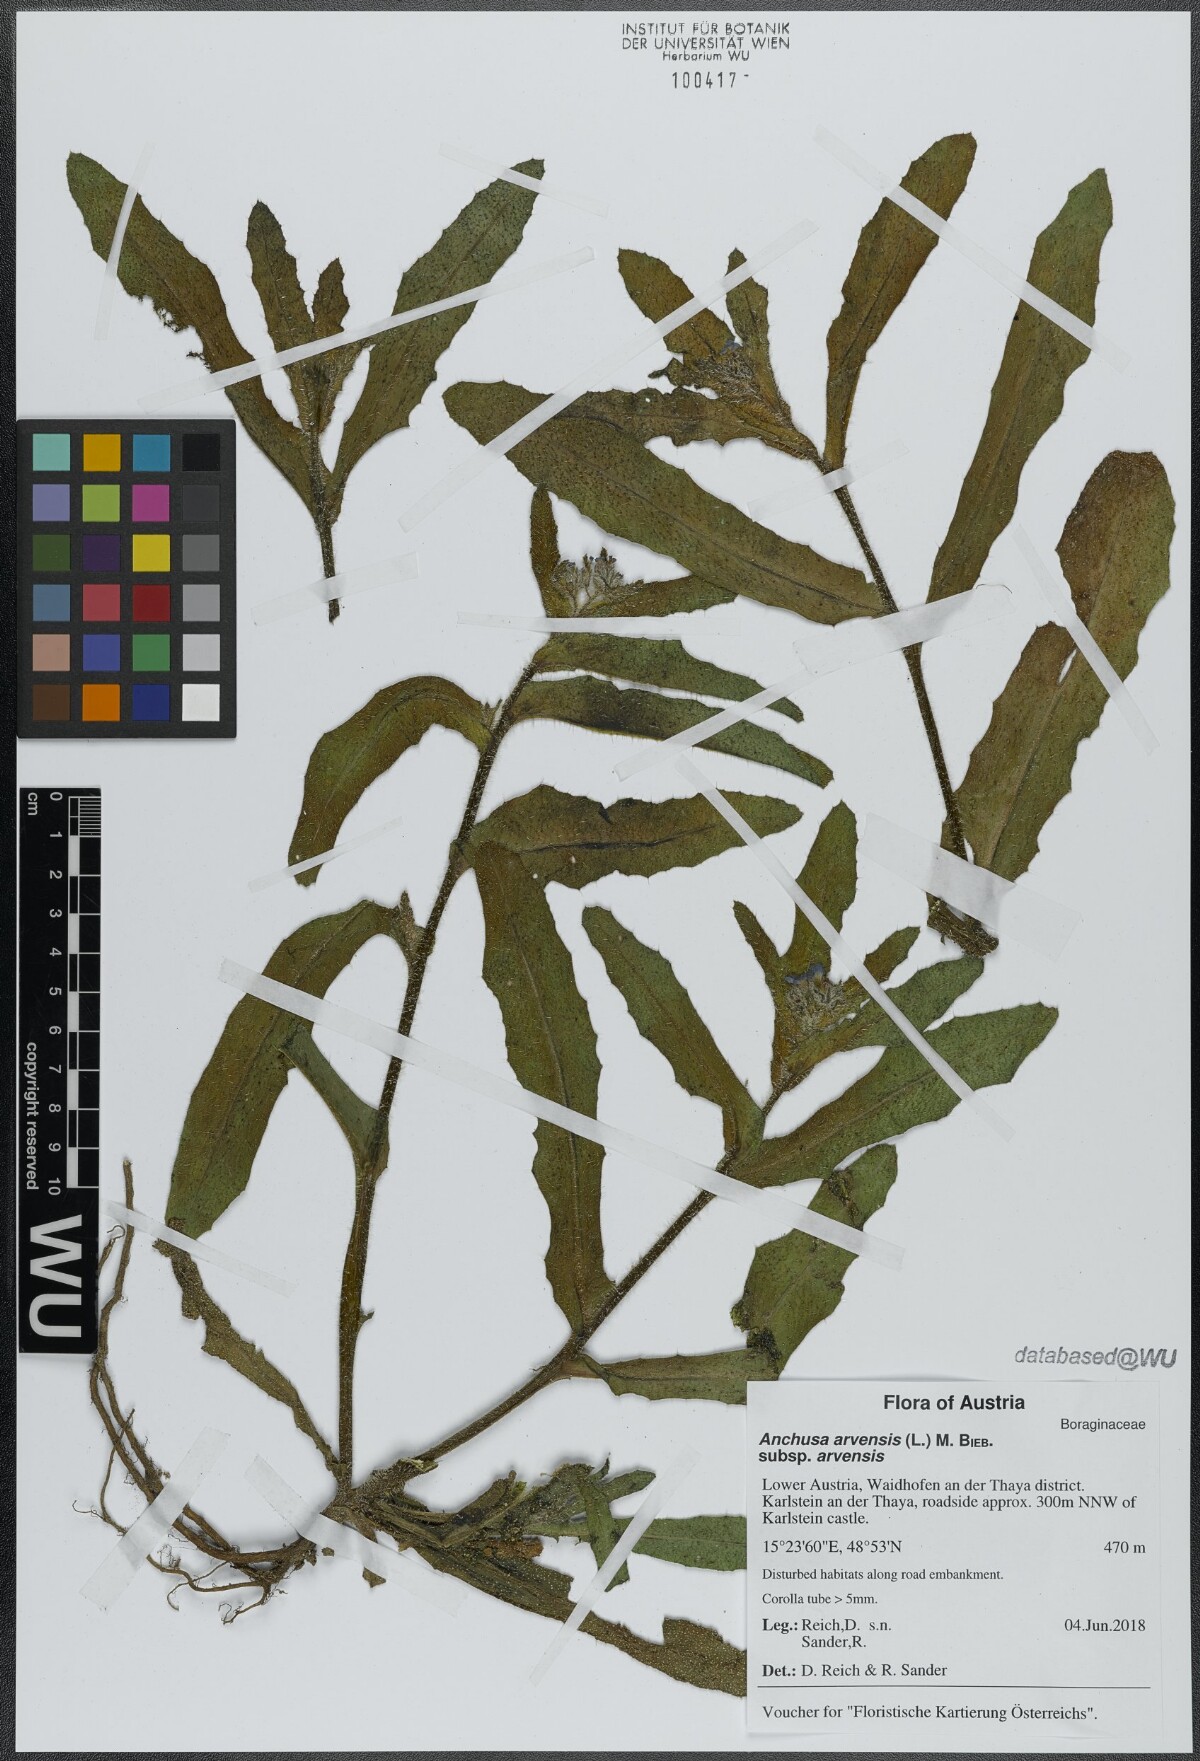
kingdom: Plantae
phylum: Tracheophyta
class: Magnoliopsida
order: Boraginales
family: Boraginaceae
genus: Lycopsis
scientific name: Lycopsis arvensis
